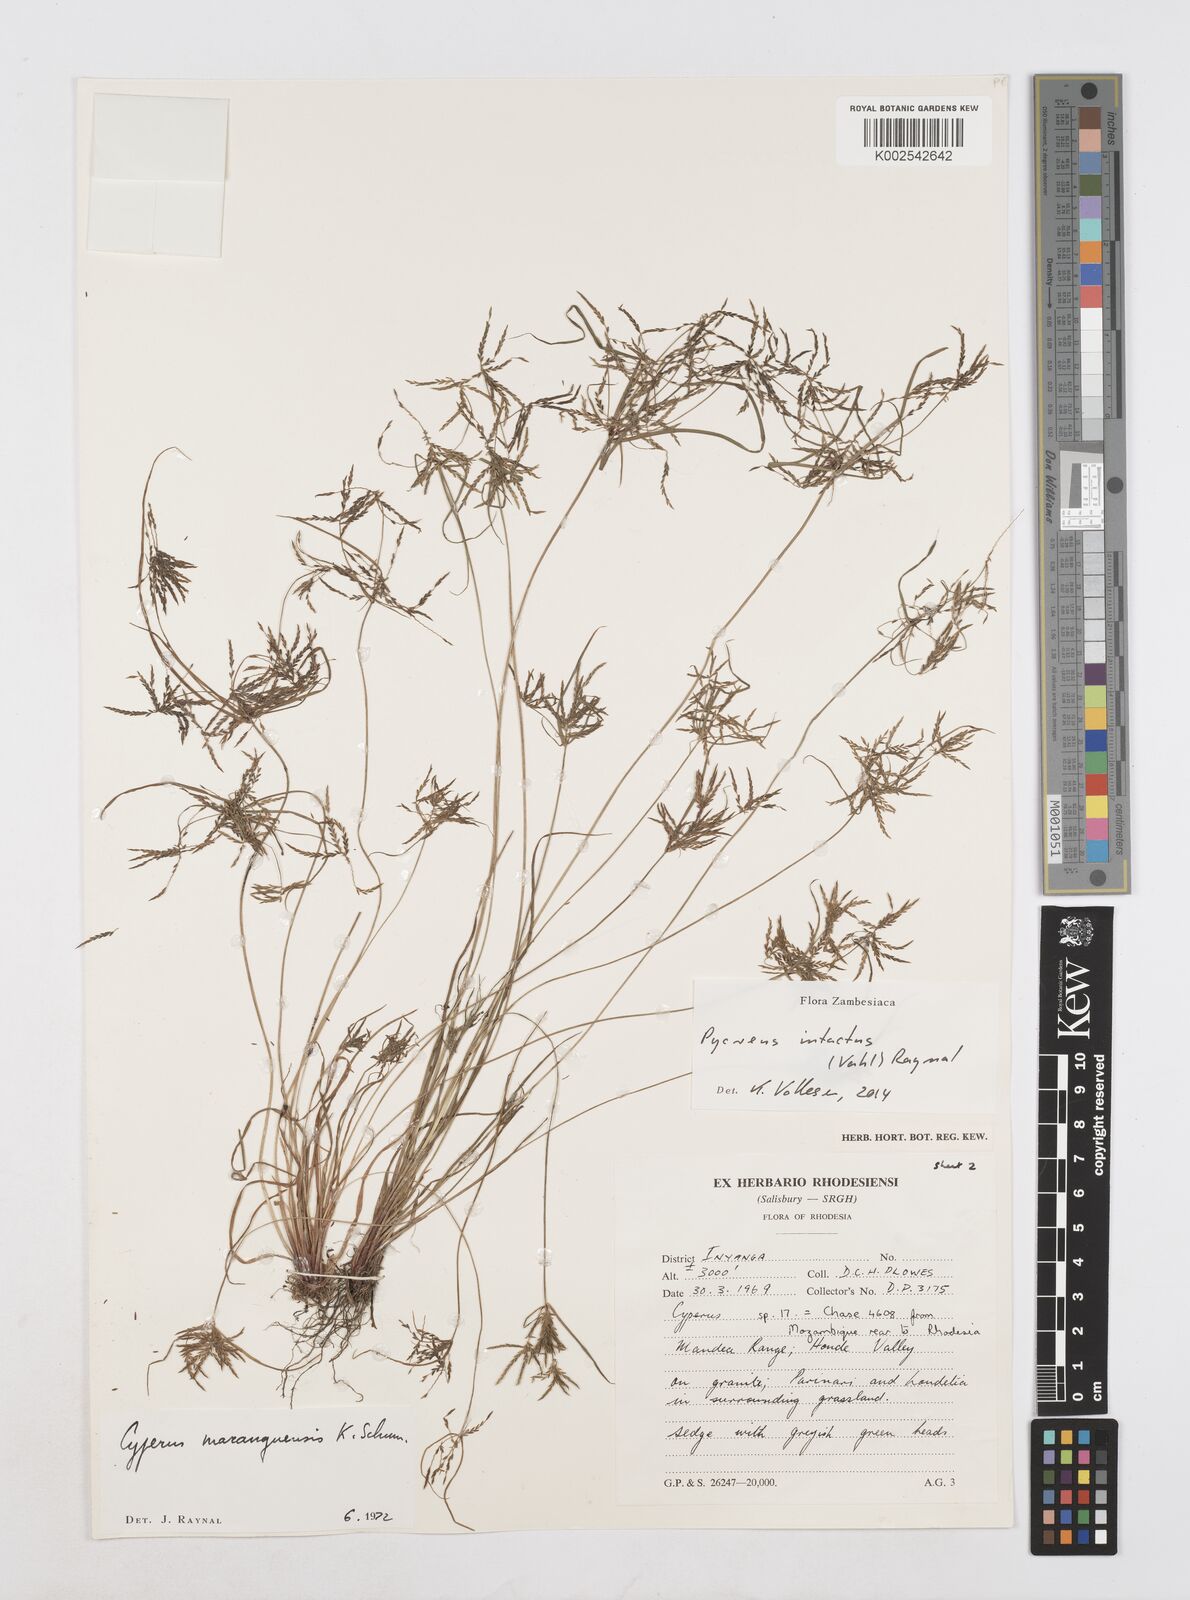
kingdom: Plantae
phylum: Tracheophyta
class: Liliopsida
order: Poales
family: Cyperaceae
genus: Cyperus
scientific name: Cyperus intactus
